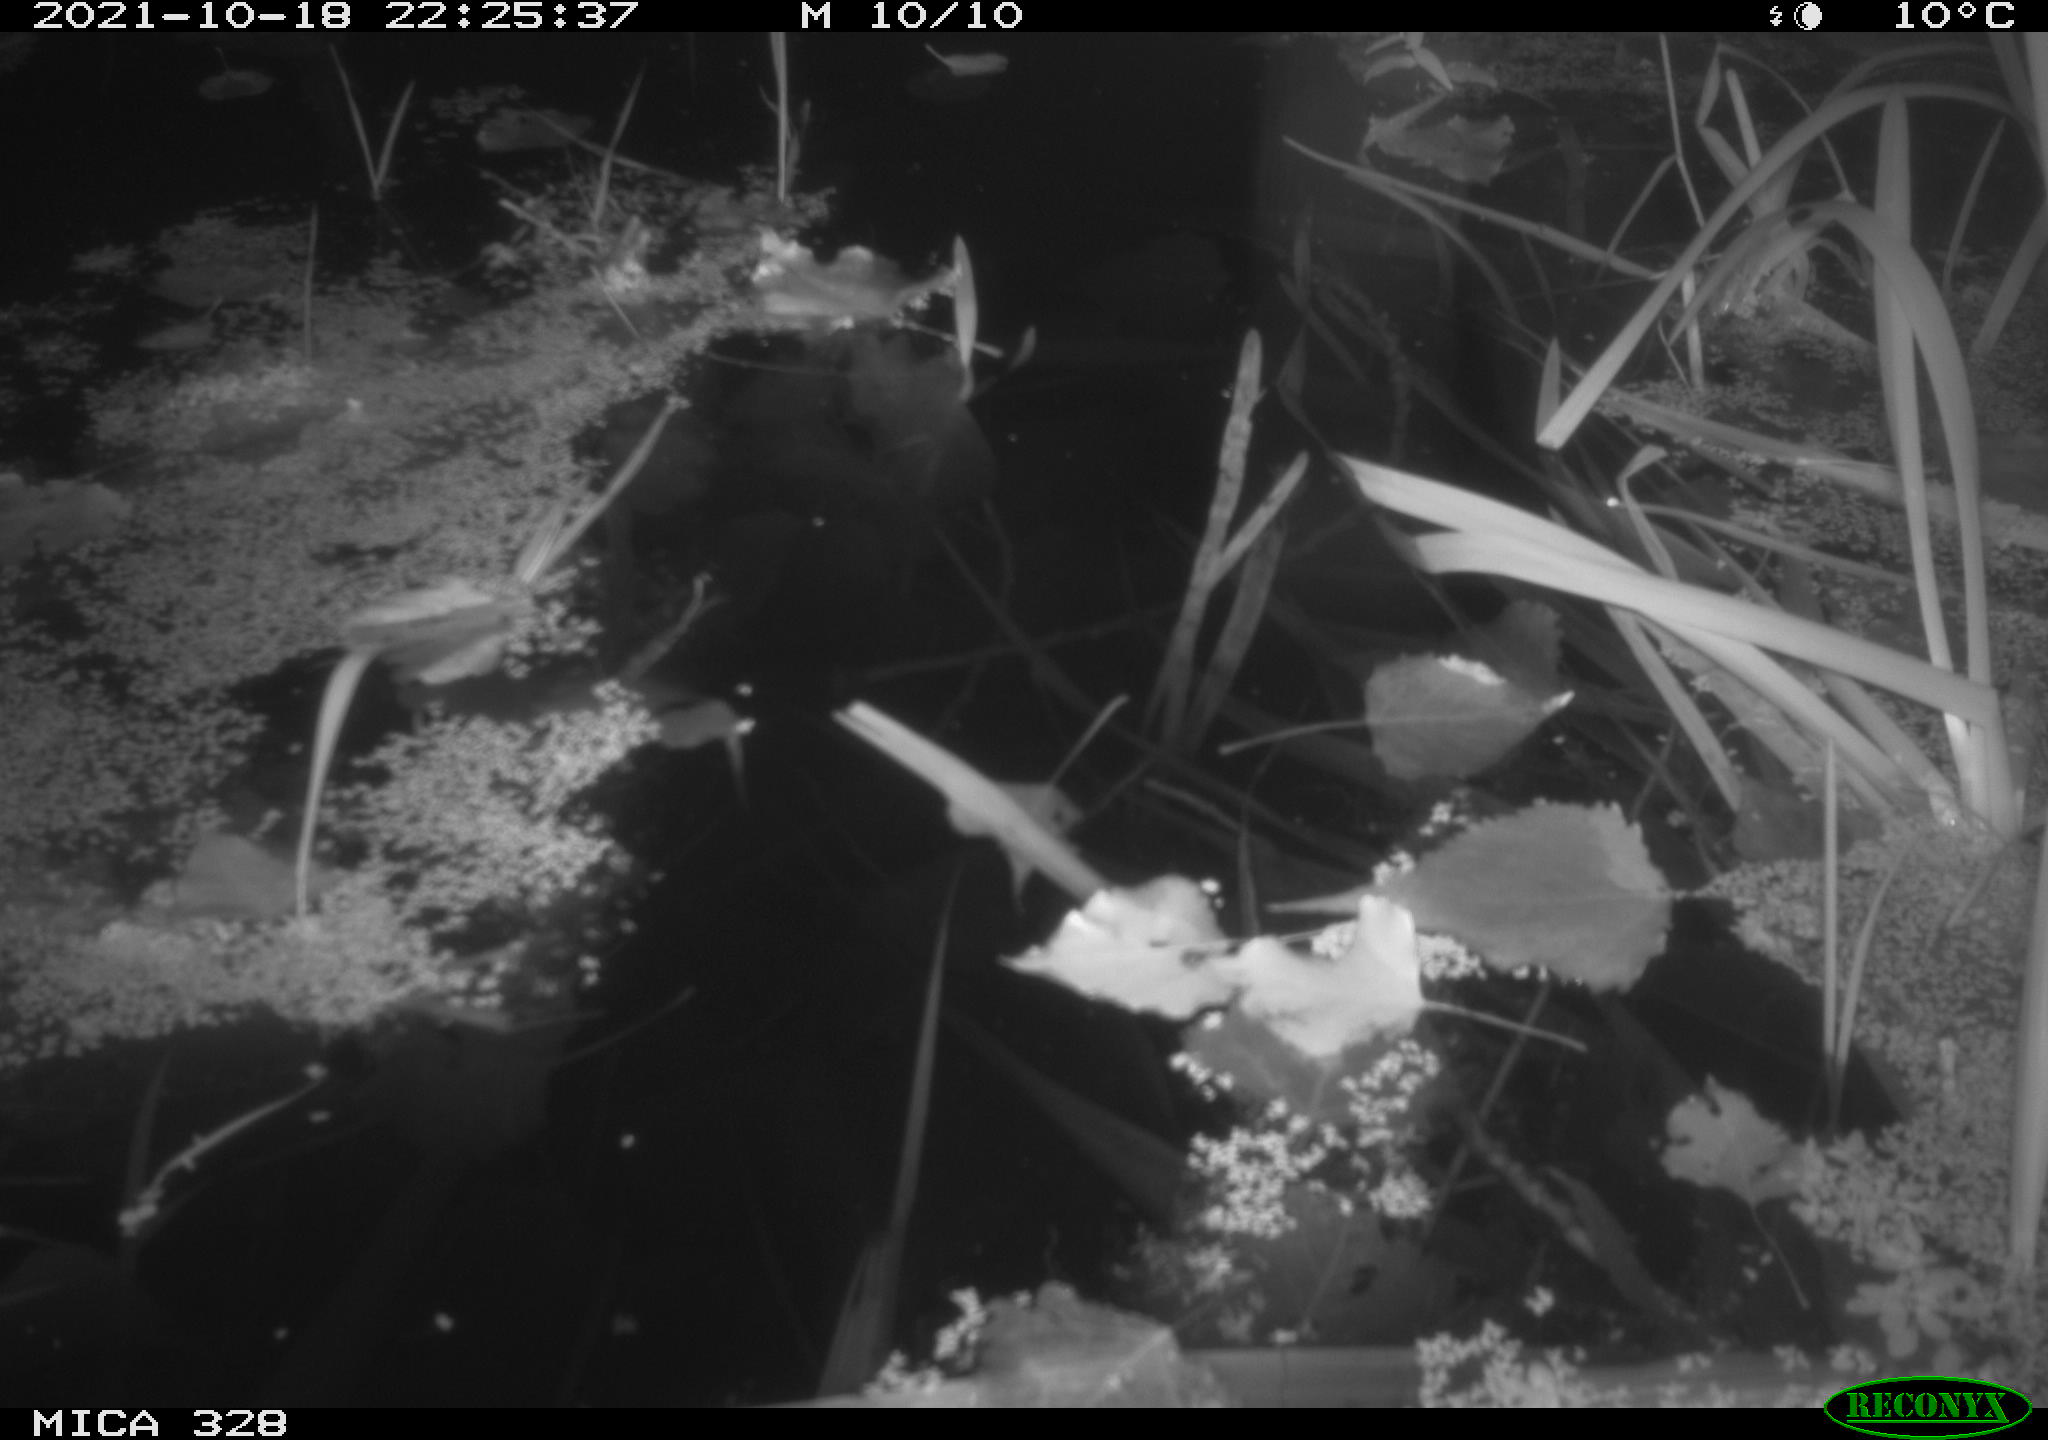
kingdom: Animalia
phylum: Chordata
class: Mammalia
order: Rodentia
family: Cricetidae
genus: Ondatra
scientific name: Ondatra zibethicus
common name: Muskrat
